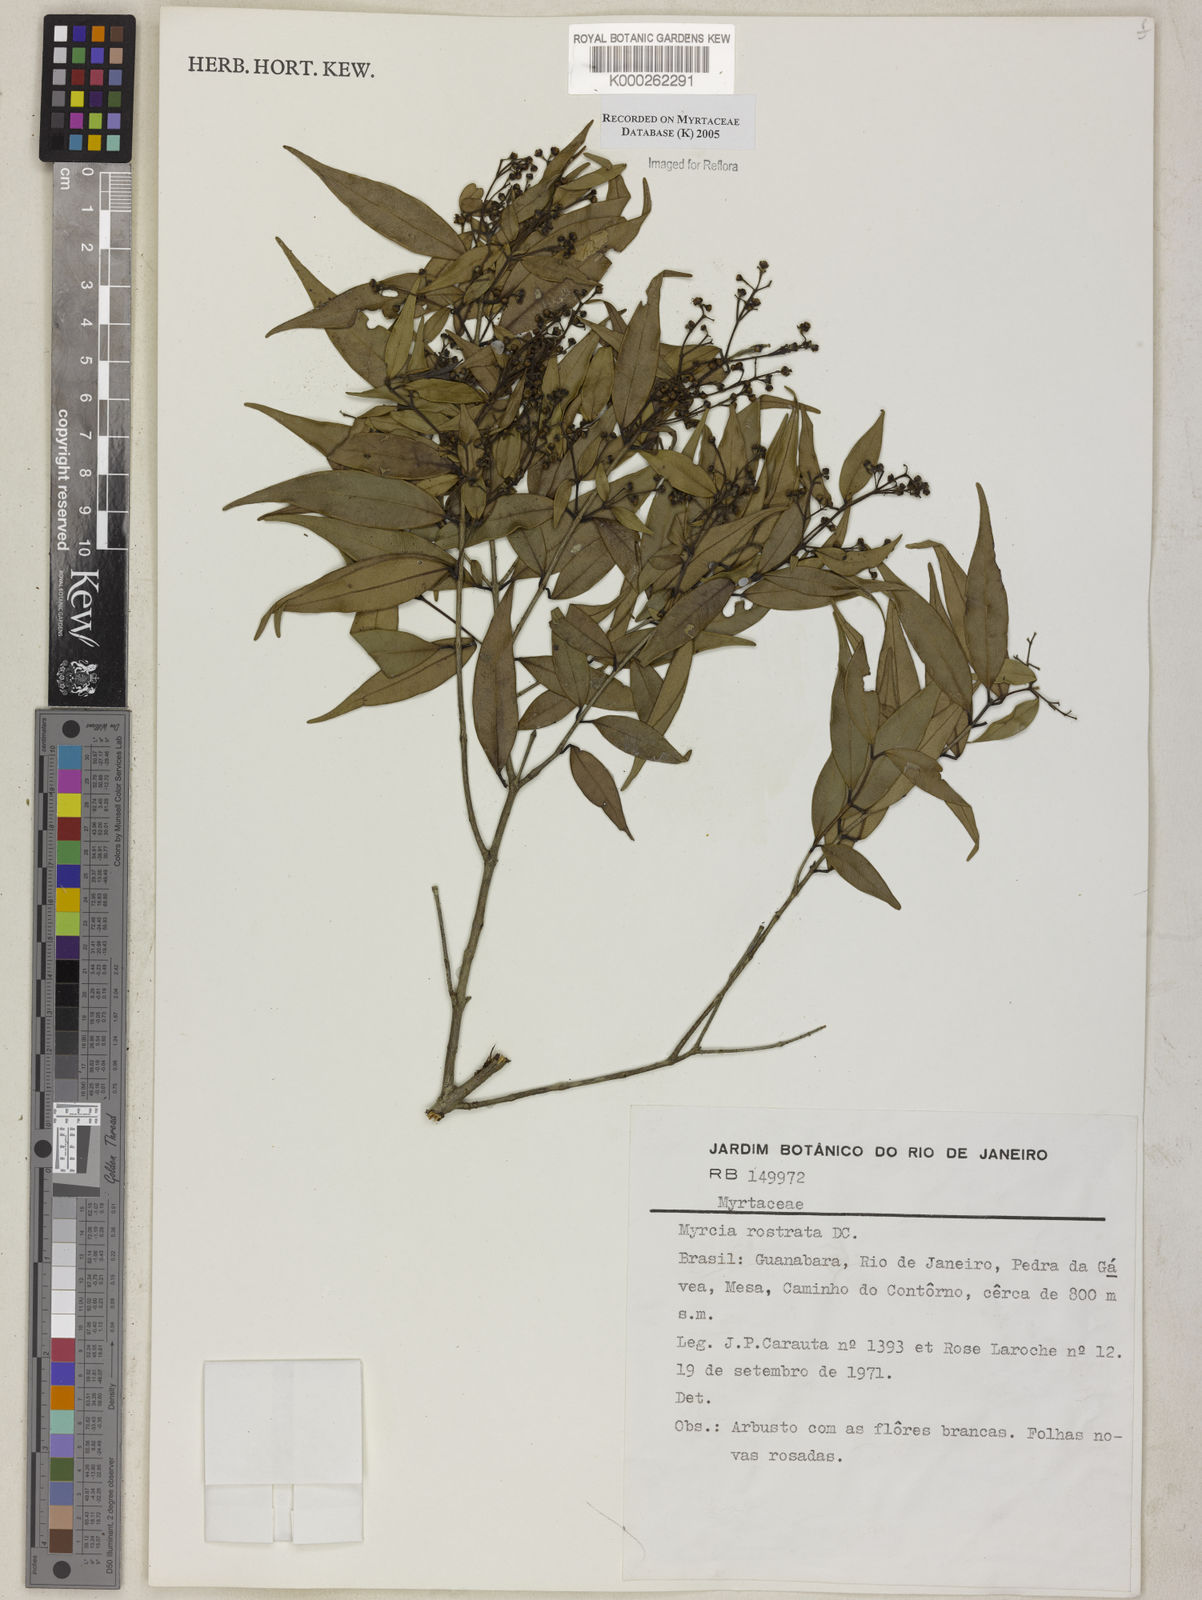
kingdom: Plantae
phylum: Tracheophyta
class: Magnoliopsida
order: Myrtales
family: Myrtaceae
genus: Myrcia
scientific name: Myrcia splendens
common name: Surinam cherry
